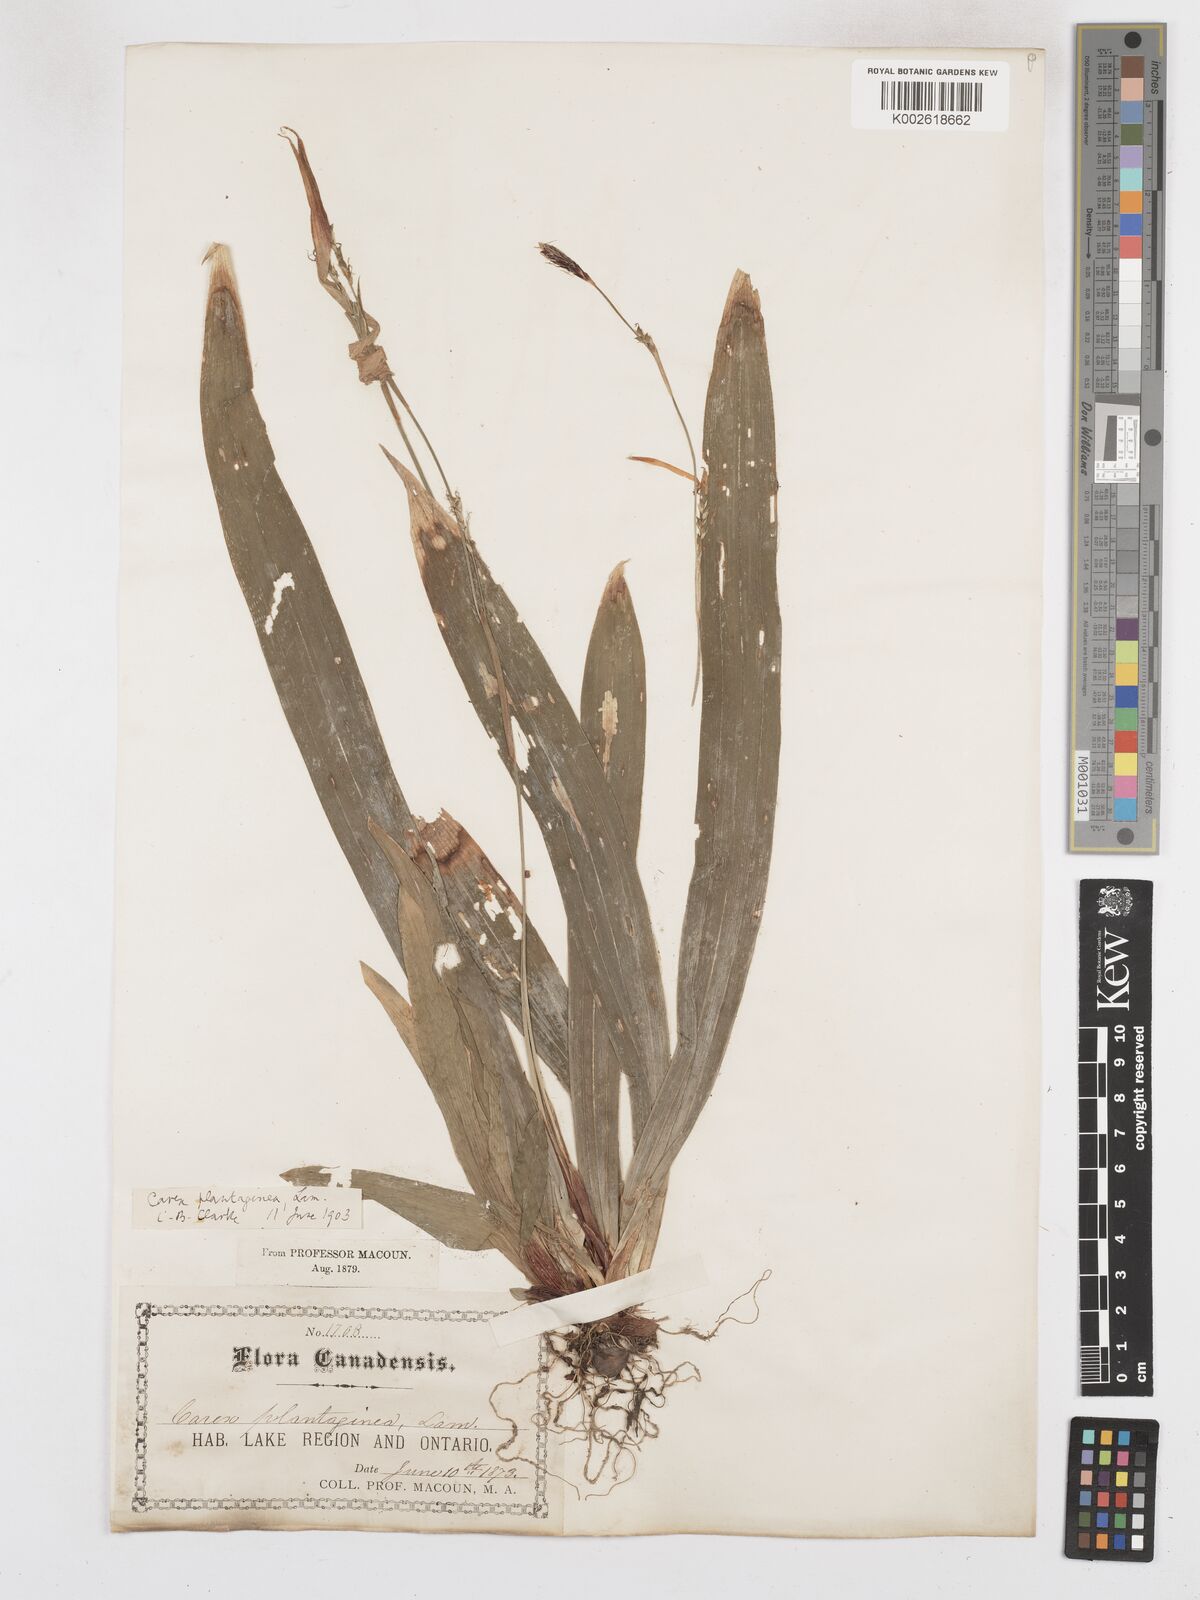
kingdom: Plantae
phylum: Tracheophyta
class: Liliopsida
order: Poales
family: Cyperaceae
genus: Carex
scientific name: Carex plantaginea
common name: Plantain-leaved sedge
